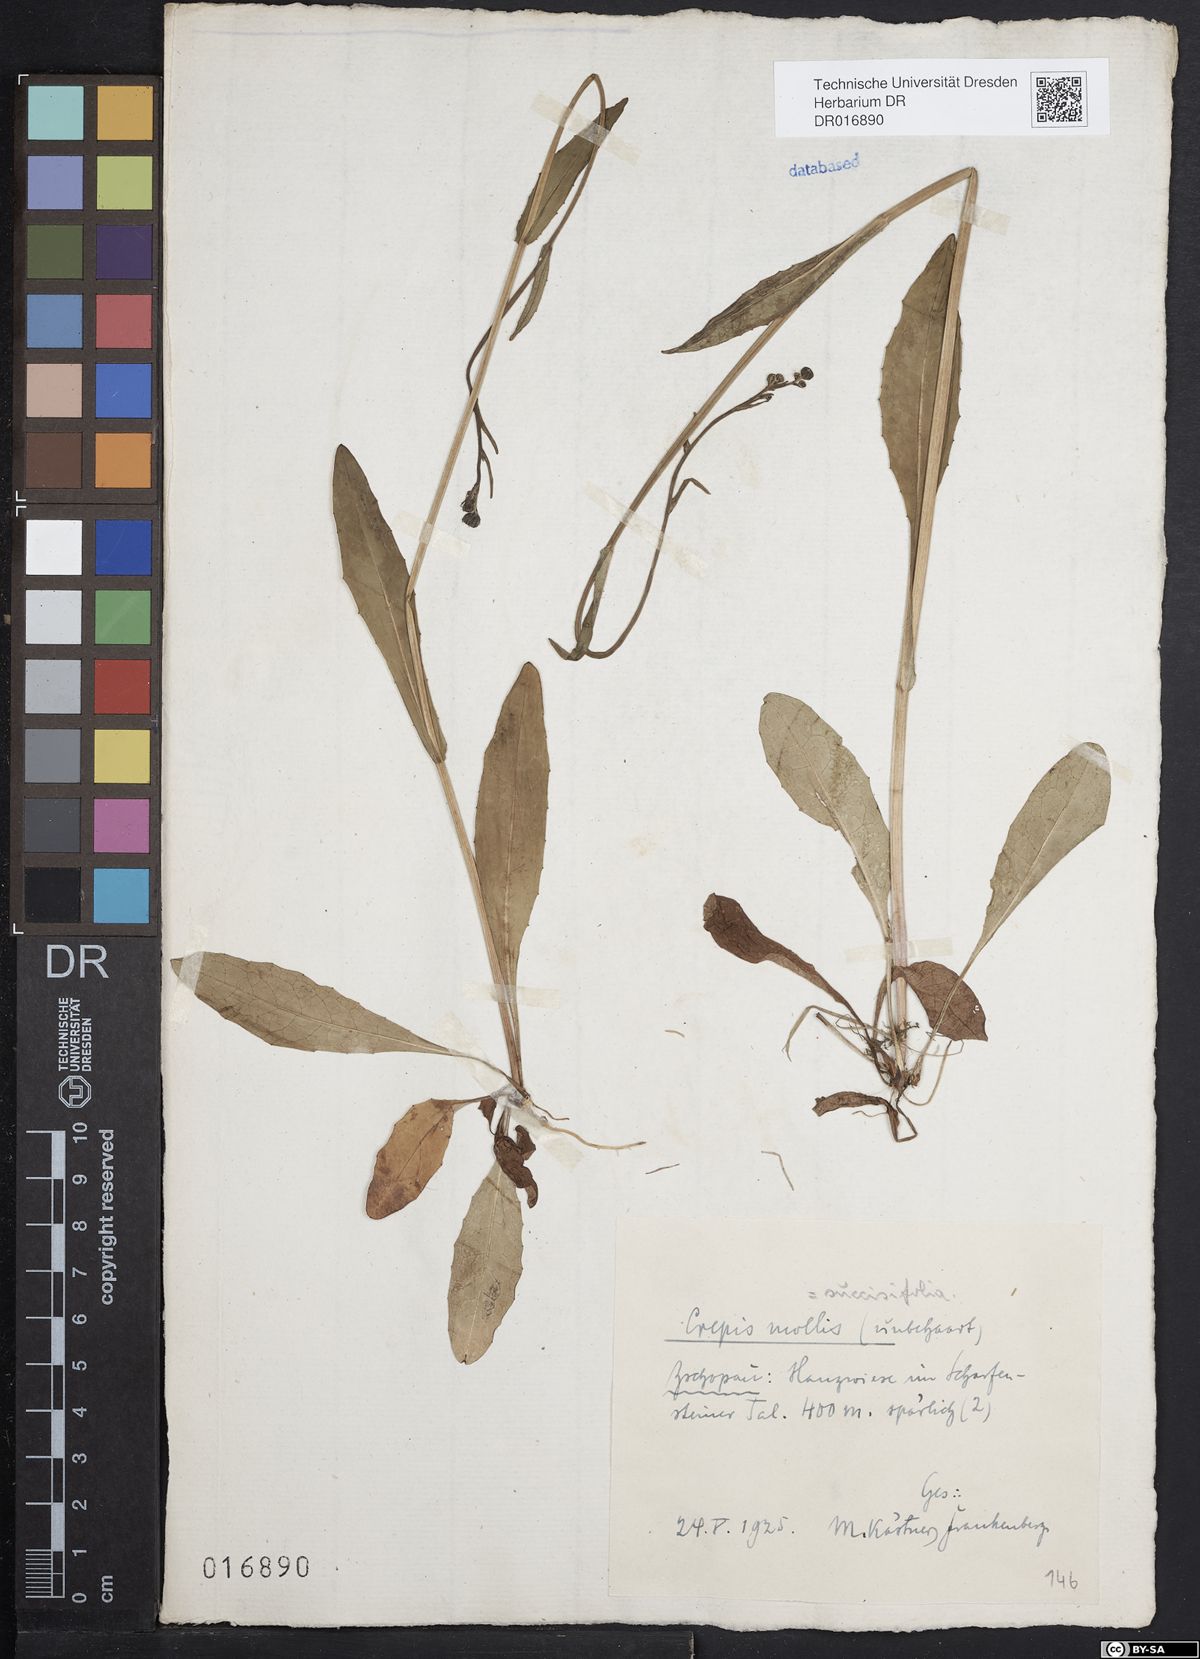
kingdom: Plantae
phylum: Tracheophyta
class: Magnoliopsida
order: Asterales
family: Asteraceae
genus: Crepis
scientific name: Crepis mollis
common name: Northern hawk's-beard
